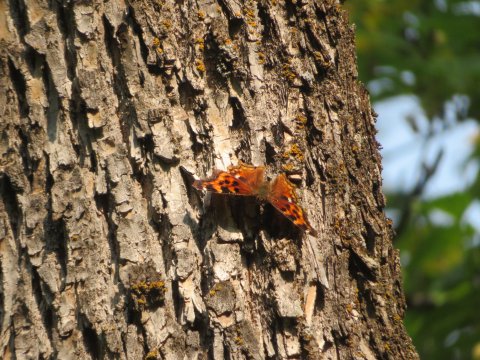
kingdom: Animalia
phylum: Arthropoda
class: Insecta
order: Lepidoptera
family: Nymphalidae
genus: Polygonia
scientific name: Polygonia vaualbum
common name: Compton Tortoiseshell
